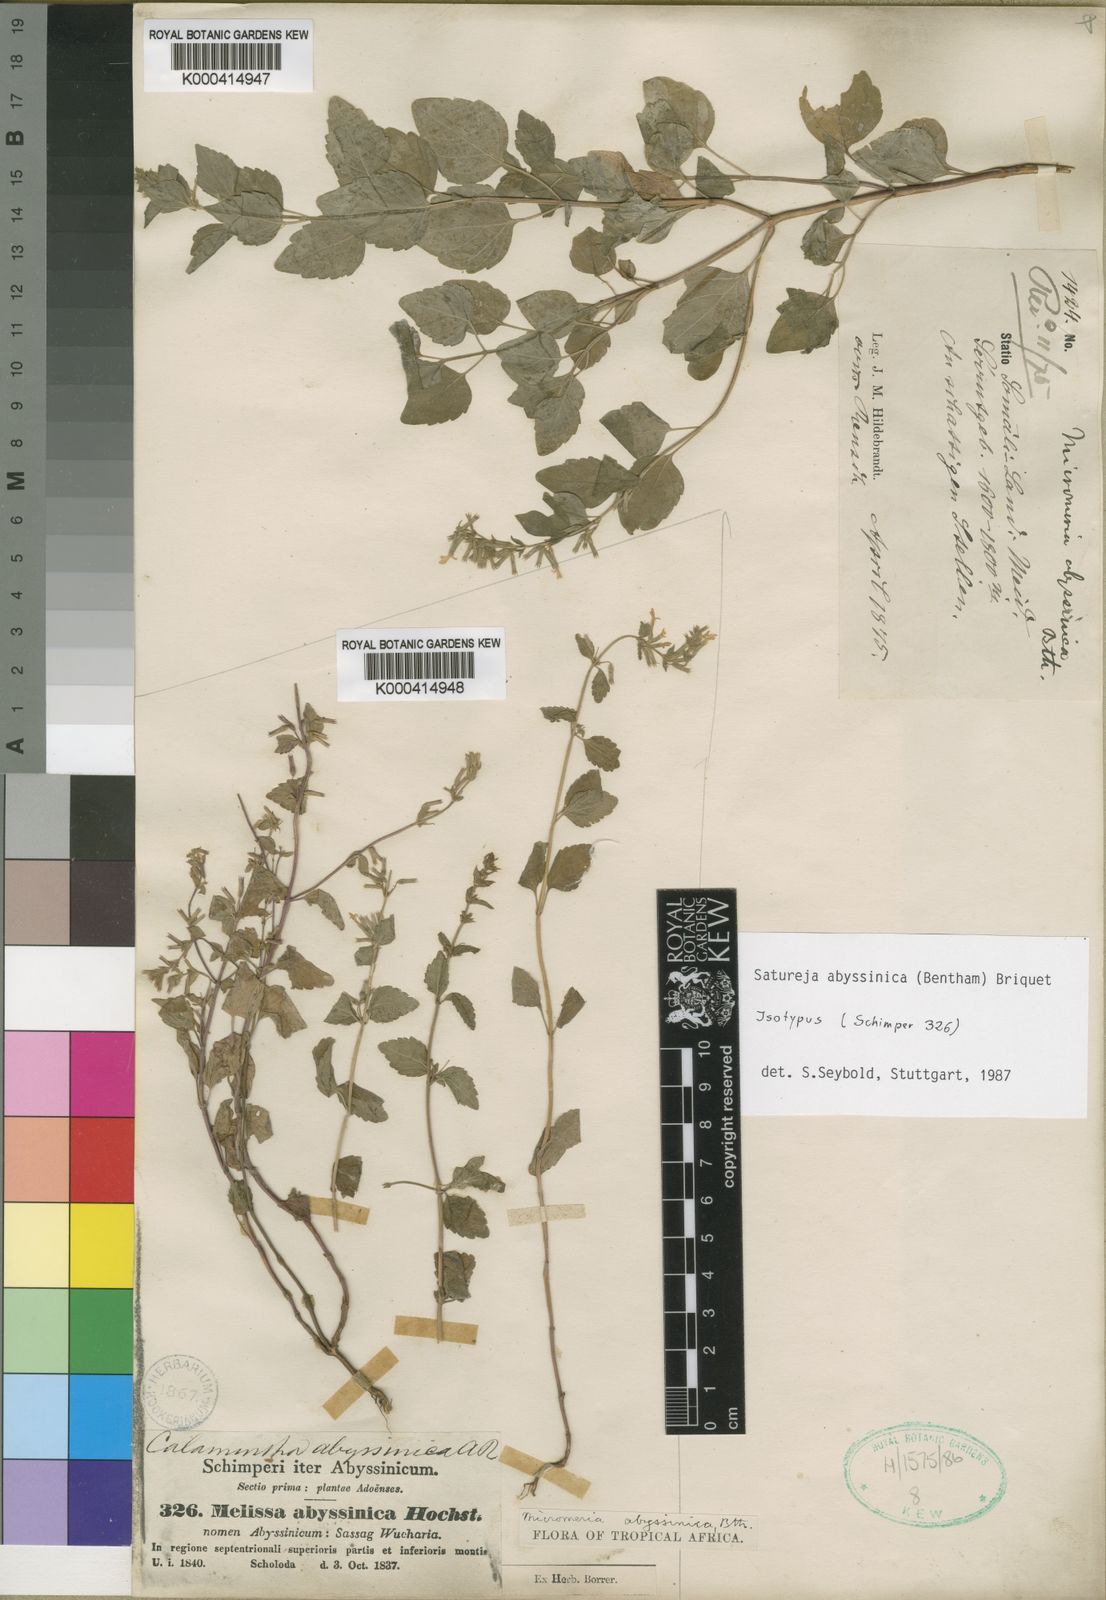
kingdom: Plantae
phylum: Tracheophyta
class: Magnoliopsida
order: Lamiales
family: Lamiaceae
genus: Clinopodium
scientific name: Clinopodium abyssinicum
